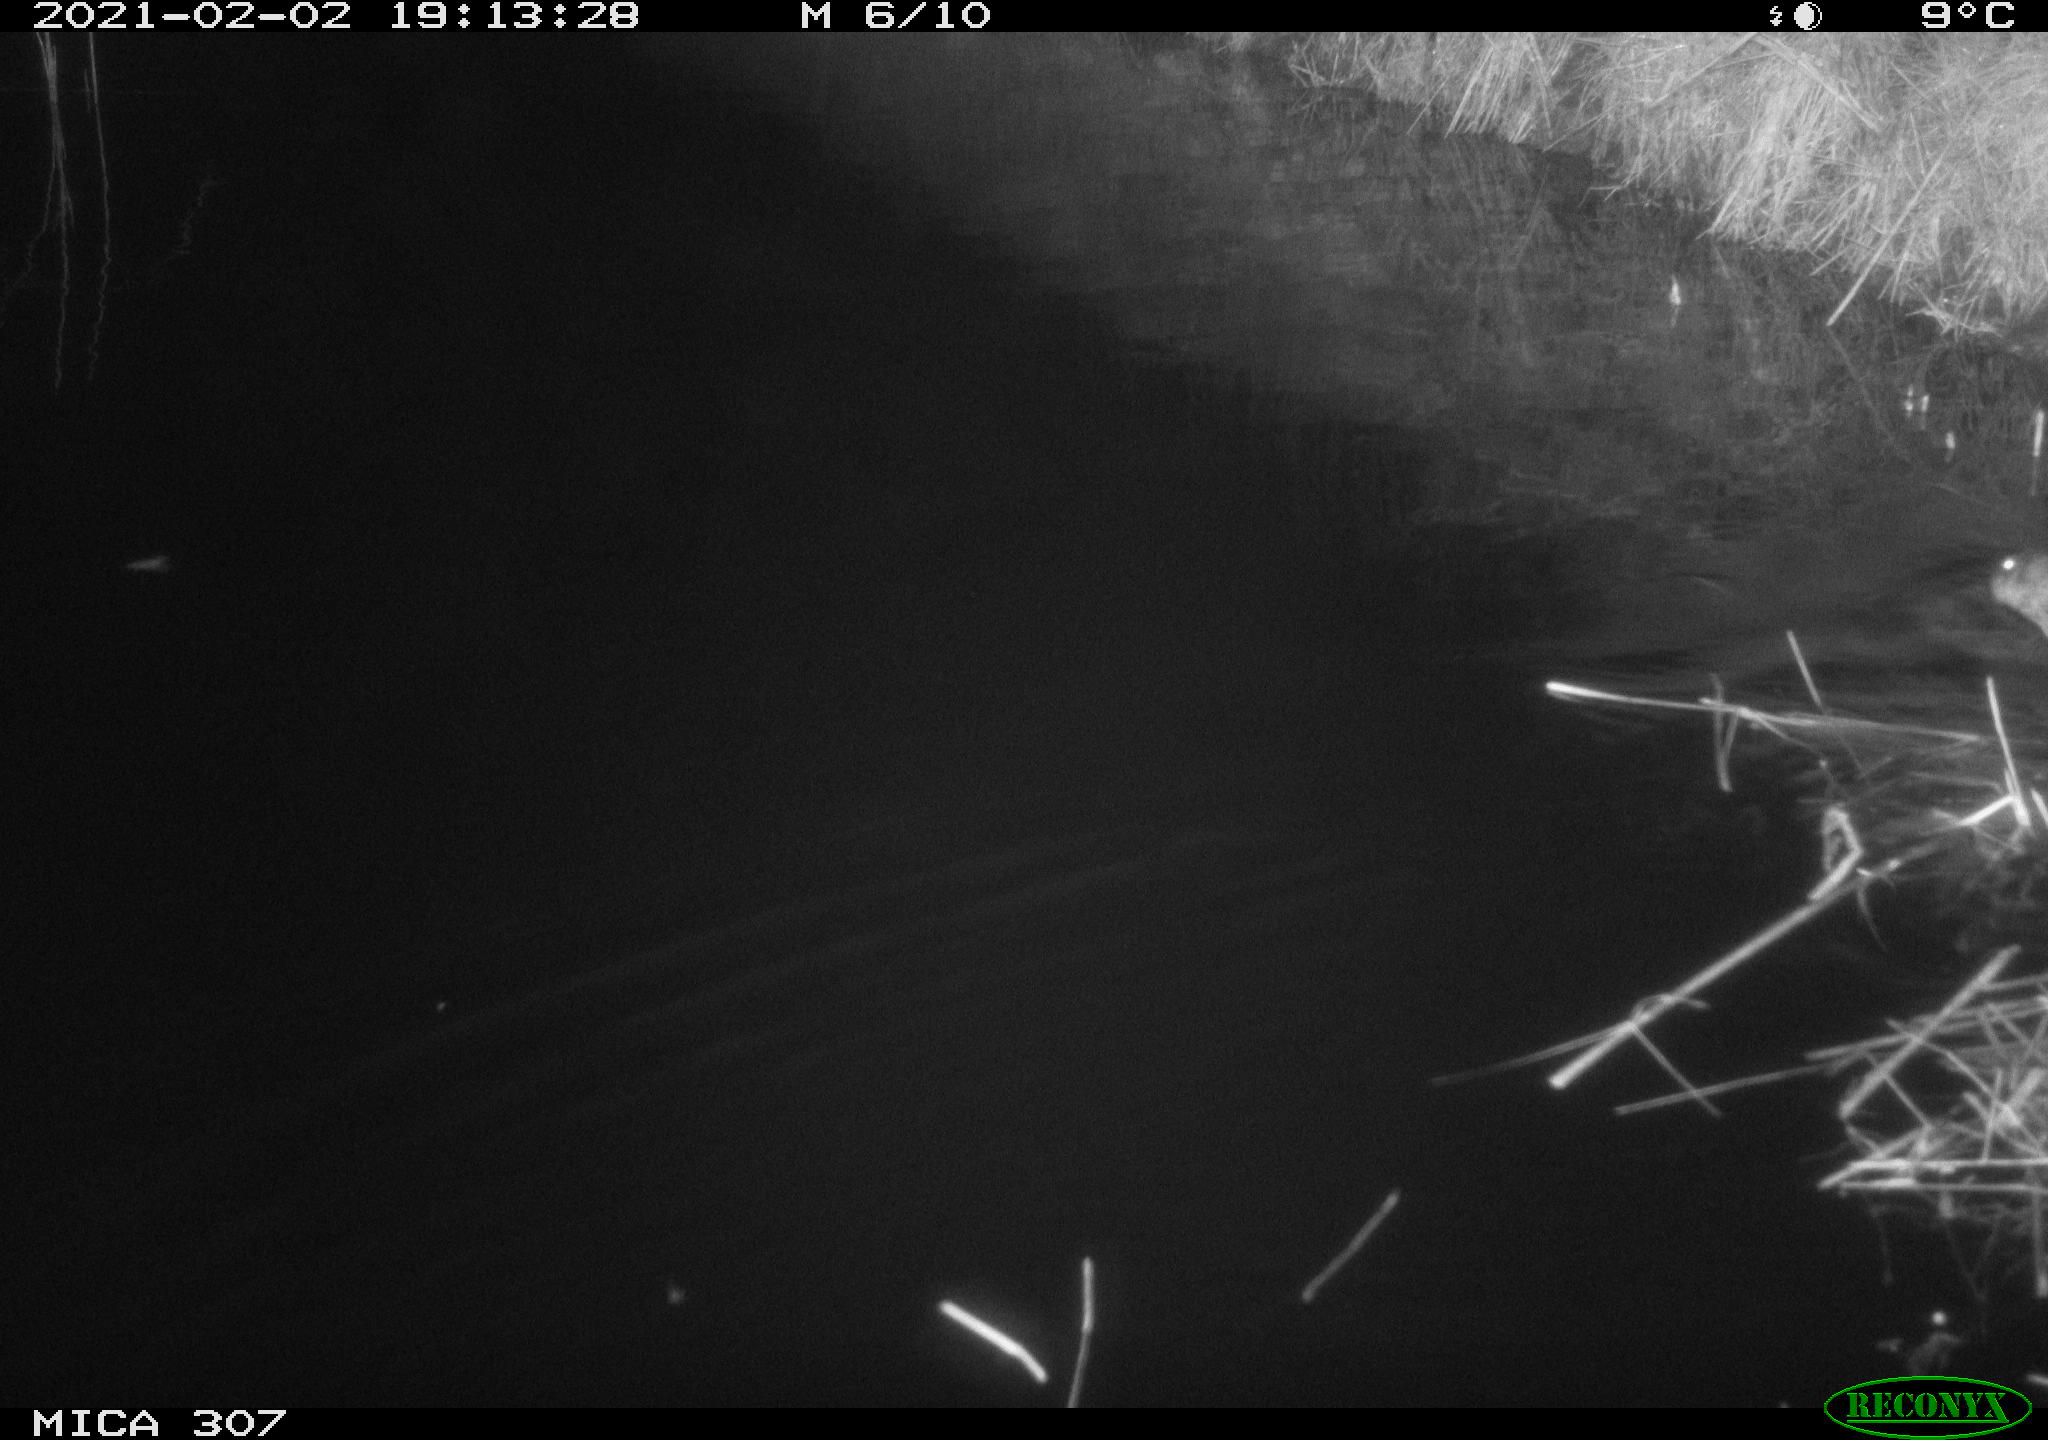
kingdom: Animalia
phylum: Chordata
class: Mammalia
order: Rodentia
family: Cricetidae
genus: Ondatra
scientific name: Ondatra zibethicus
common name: Muskrat
